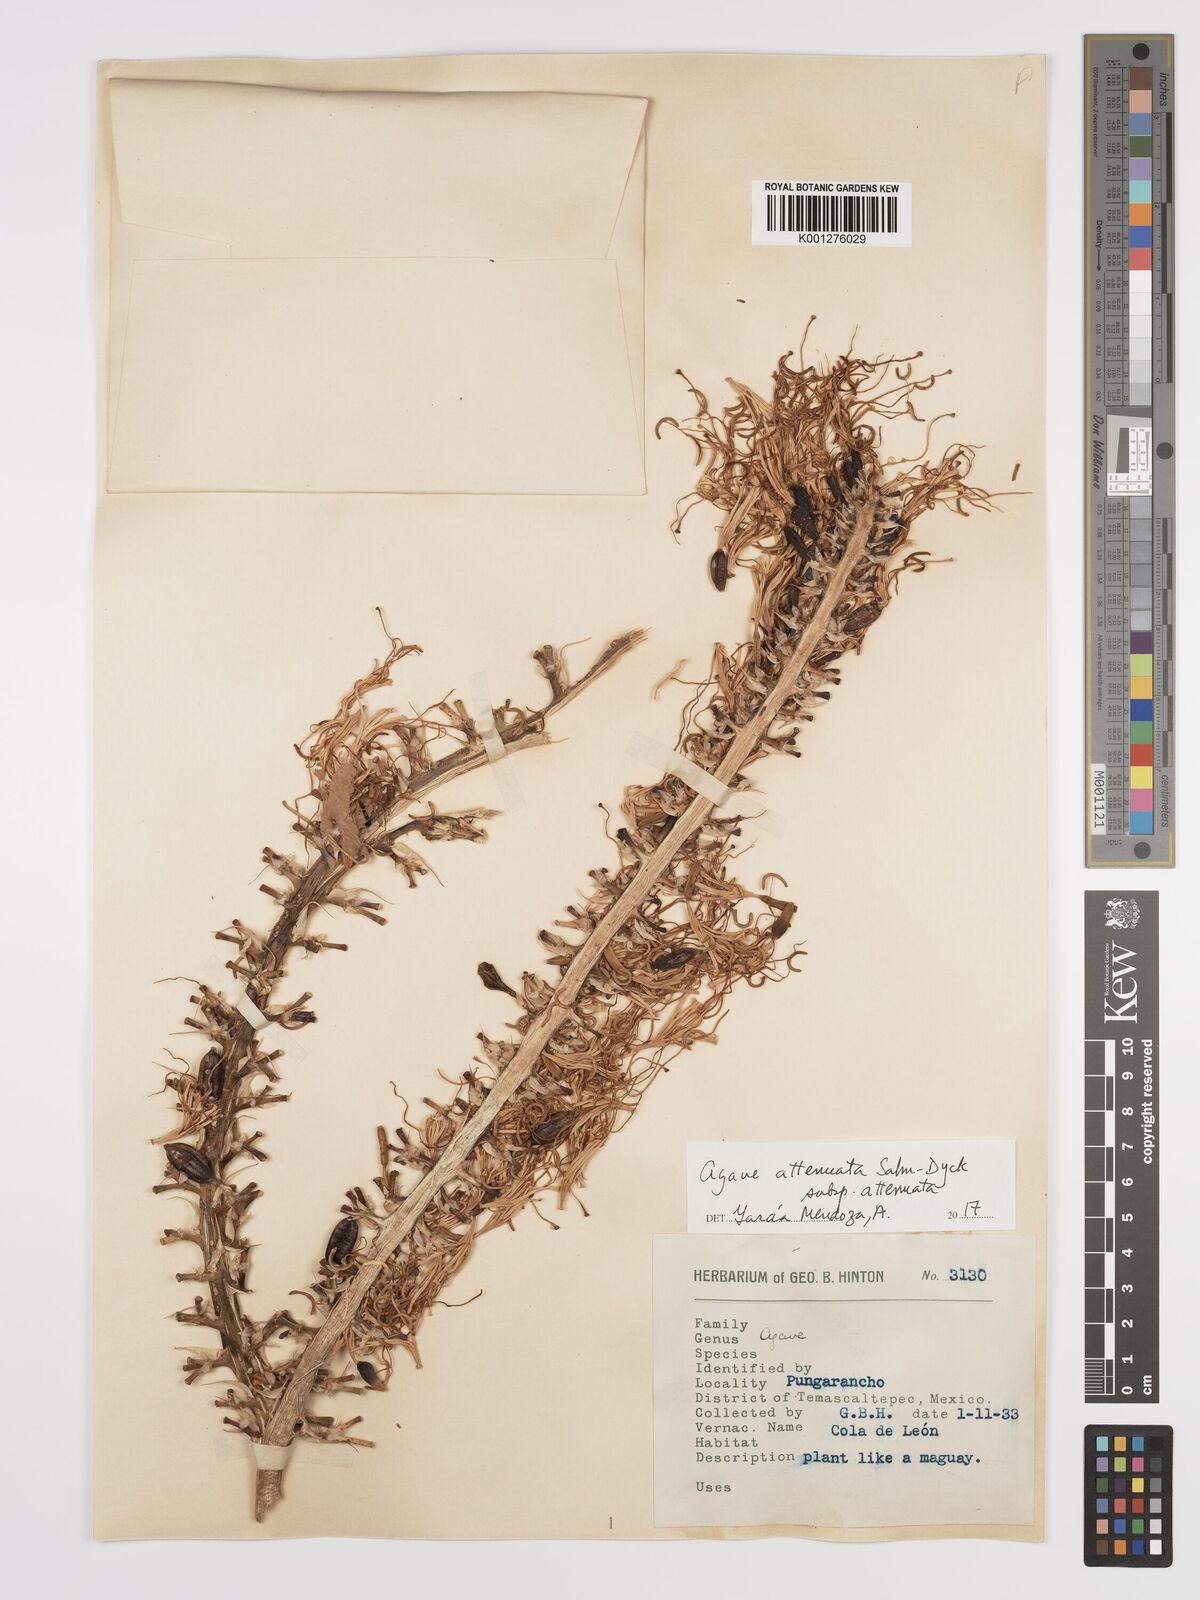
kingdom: Plantae
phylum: Tracheophyta
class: Liliopsida
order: Asparagales
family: Asparagaceae
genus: Agave
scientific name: Agave attenuata
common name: Fox tail agave
